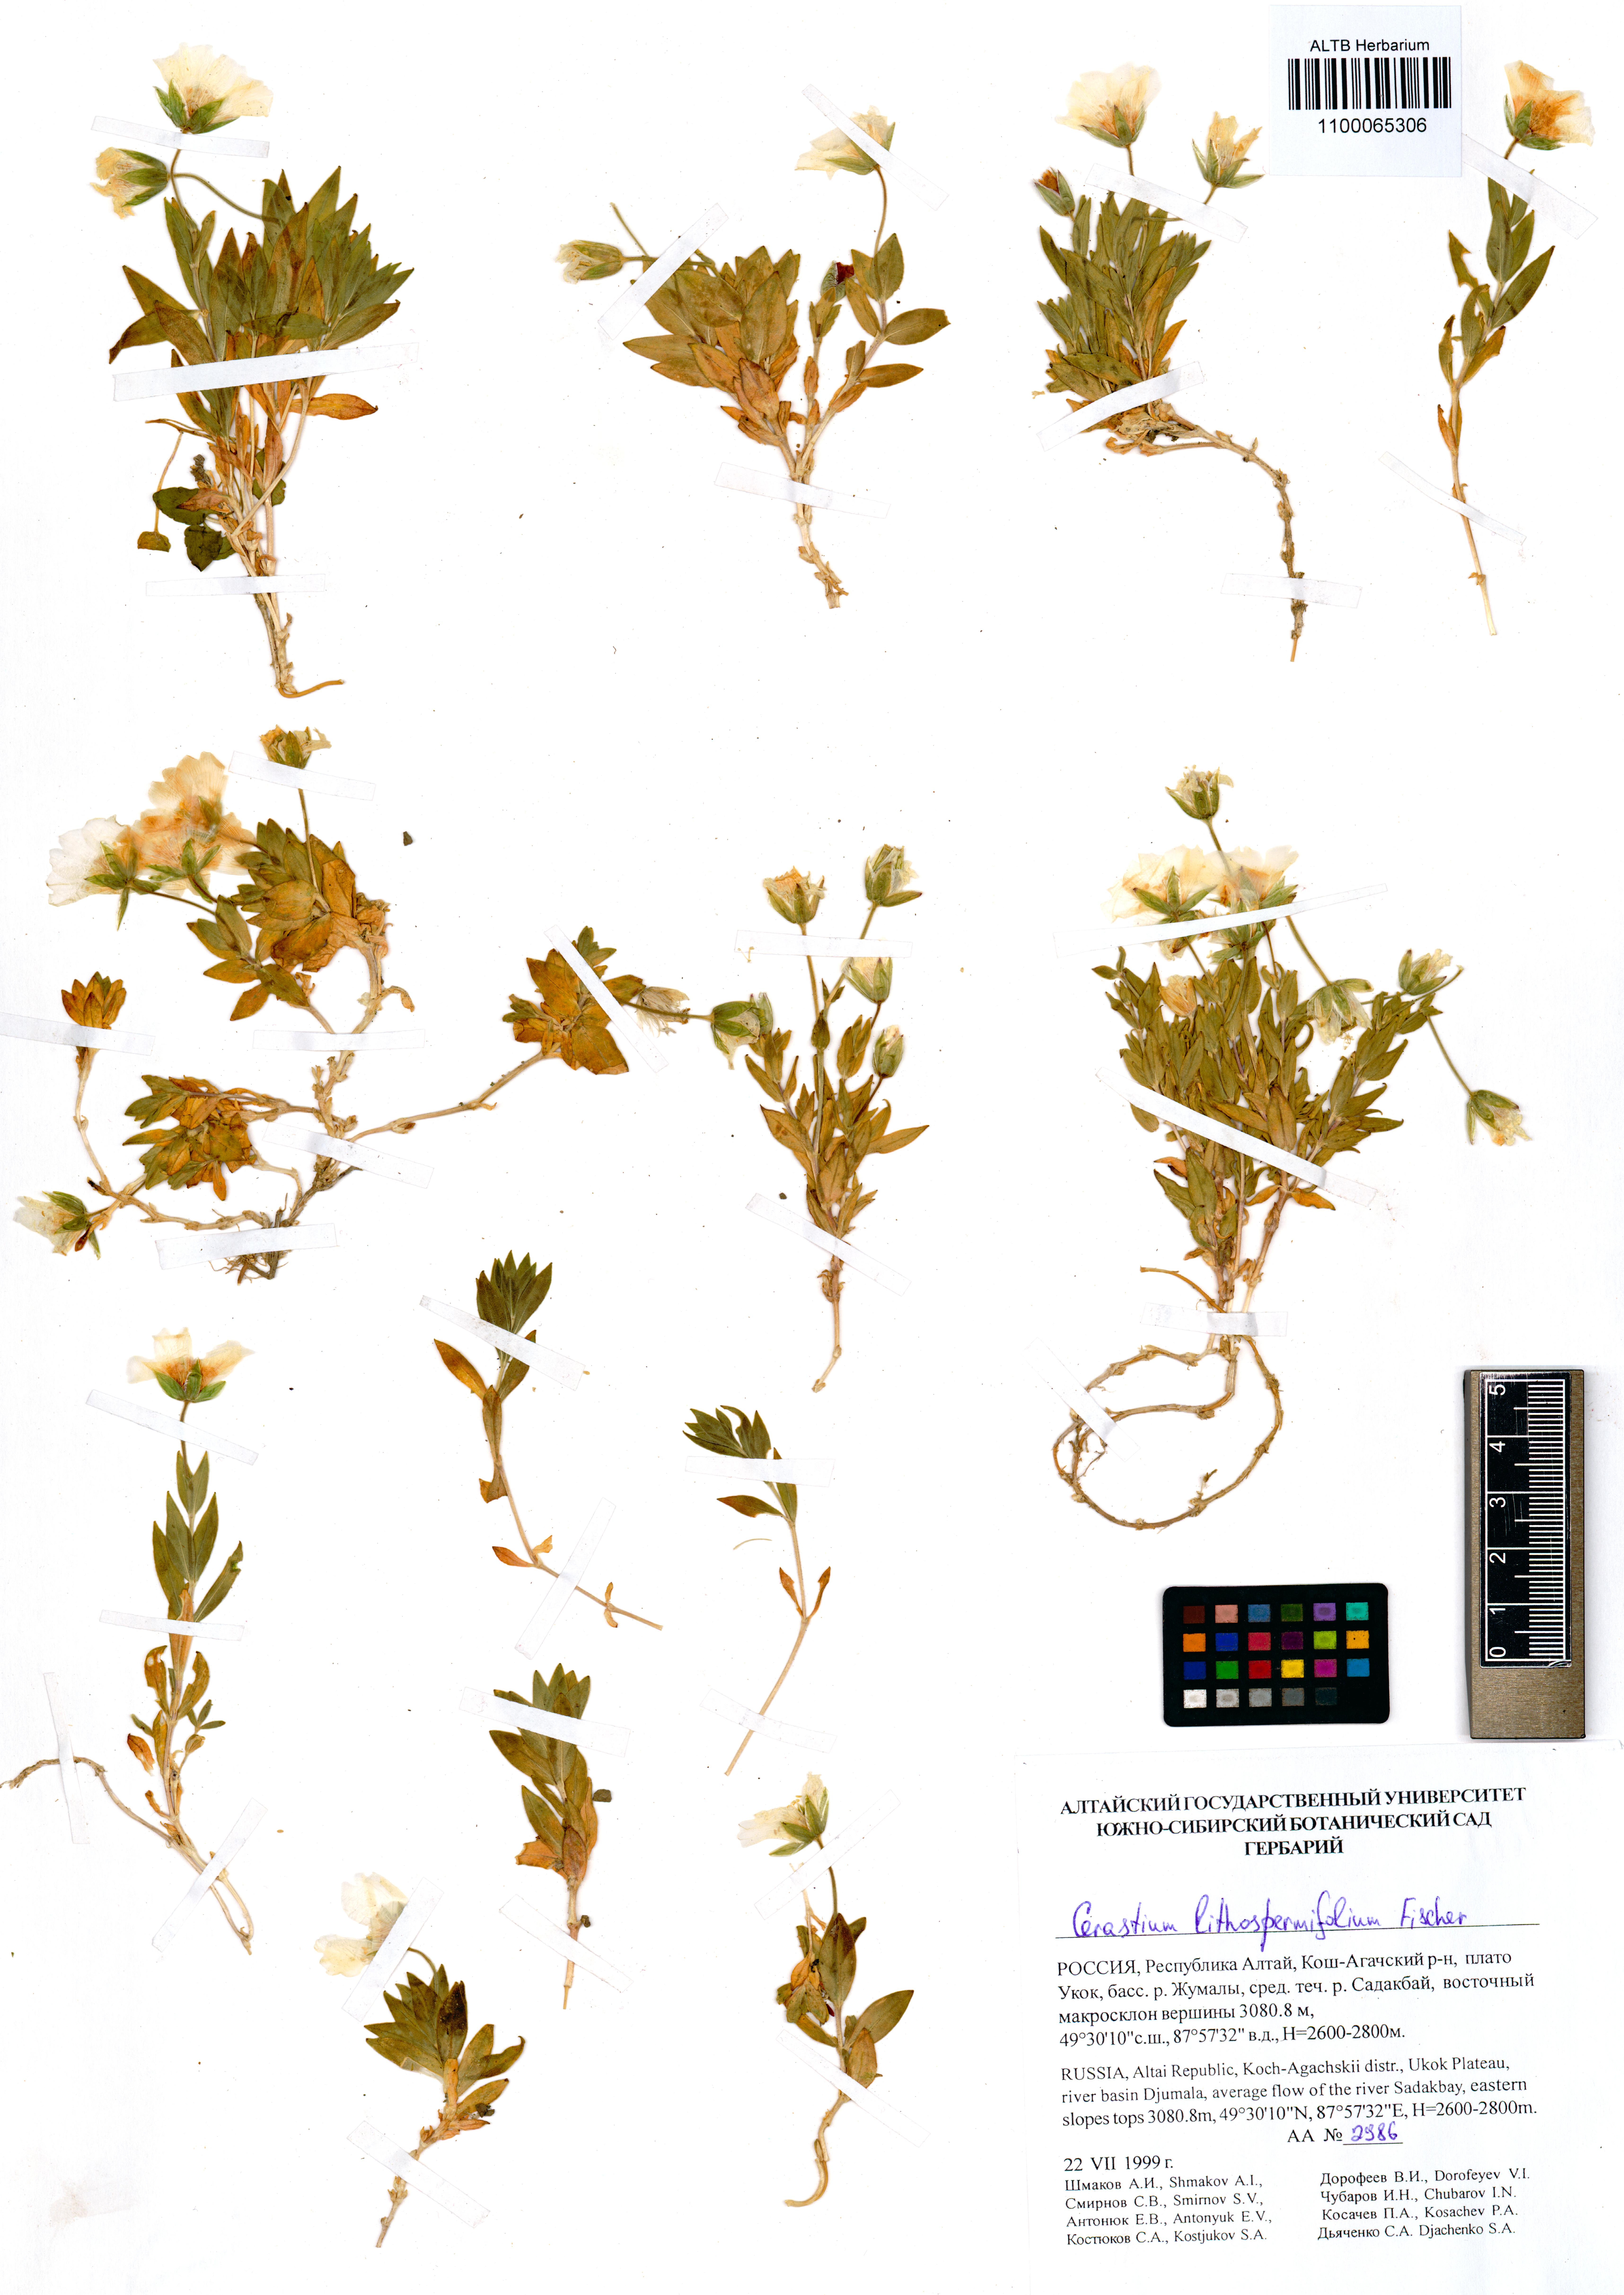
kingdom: Plantae
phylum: Tracheophyta
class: Magnoliopsida
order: Caryophyllales
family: Caryophyllaceae
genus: Cerastium
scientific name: Cerastium lithospermifolium
